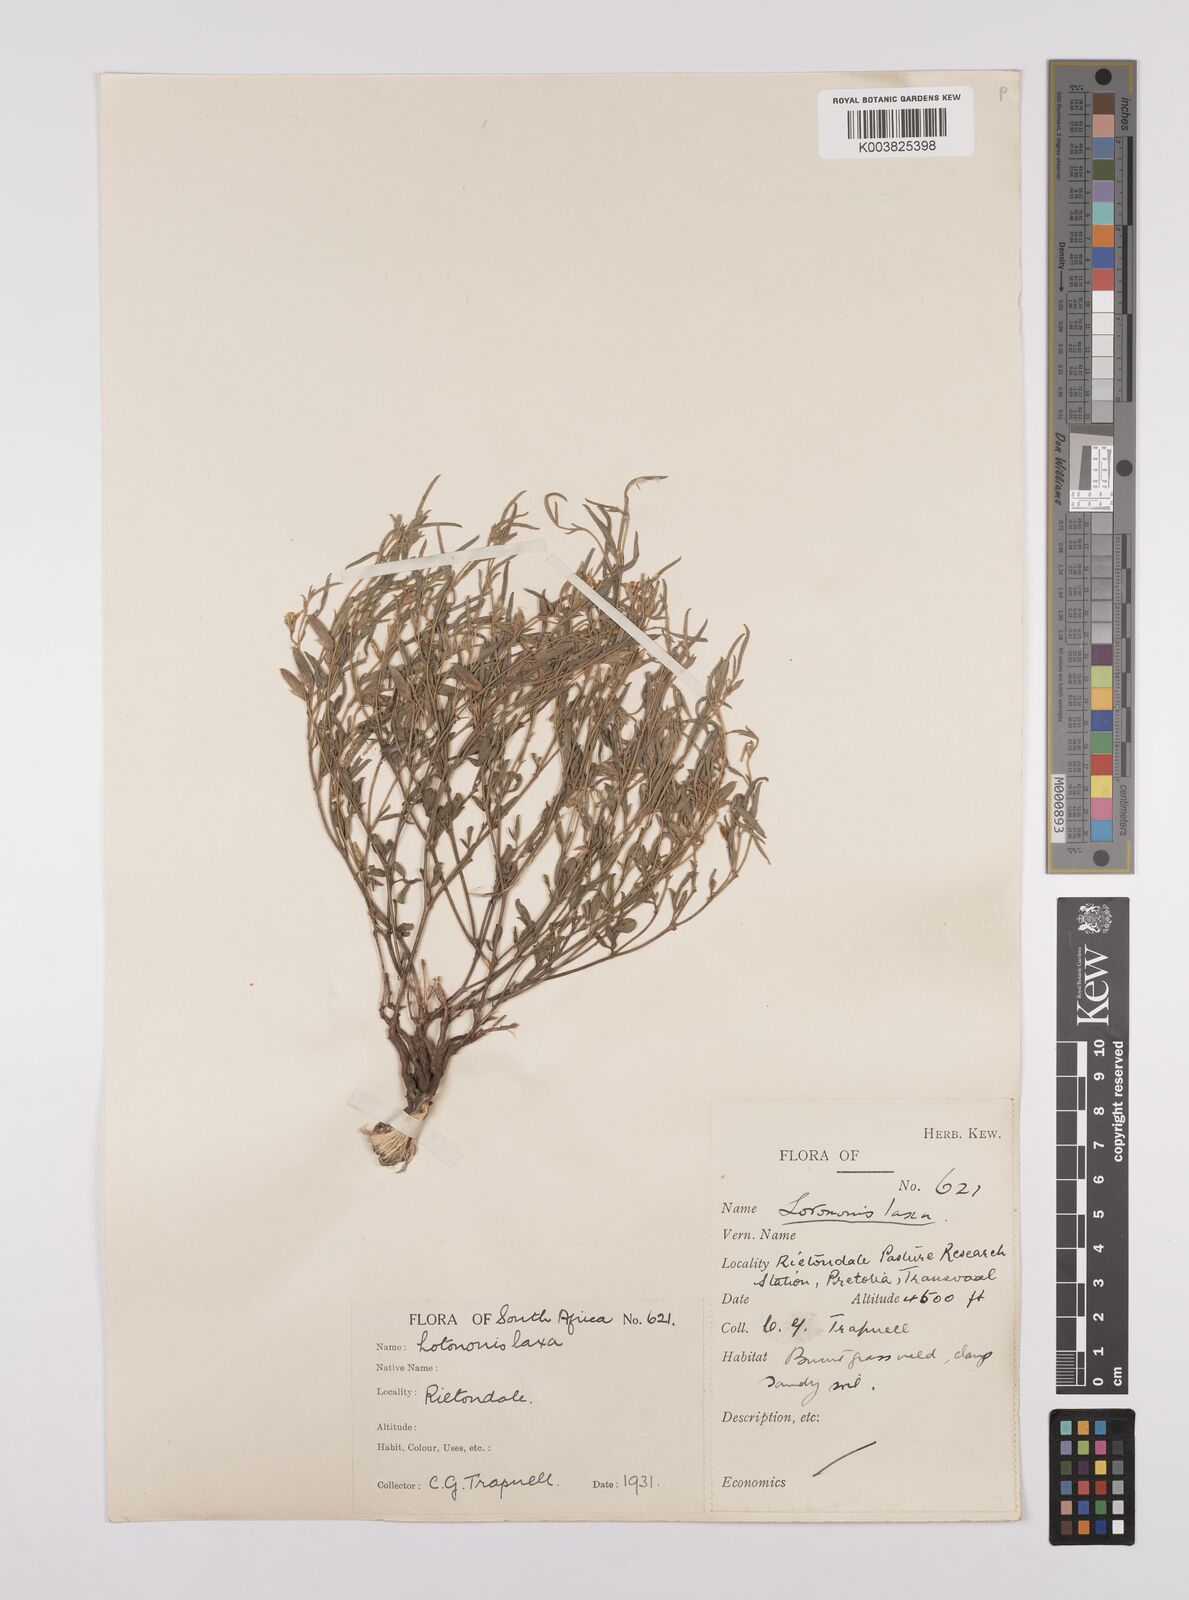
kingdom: Plantae
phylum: Tracheophyta
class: Magnoliopsida
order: Fabales
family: Fabaceae
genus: Lotononis
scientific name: Lotononis laxa
